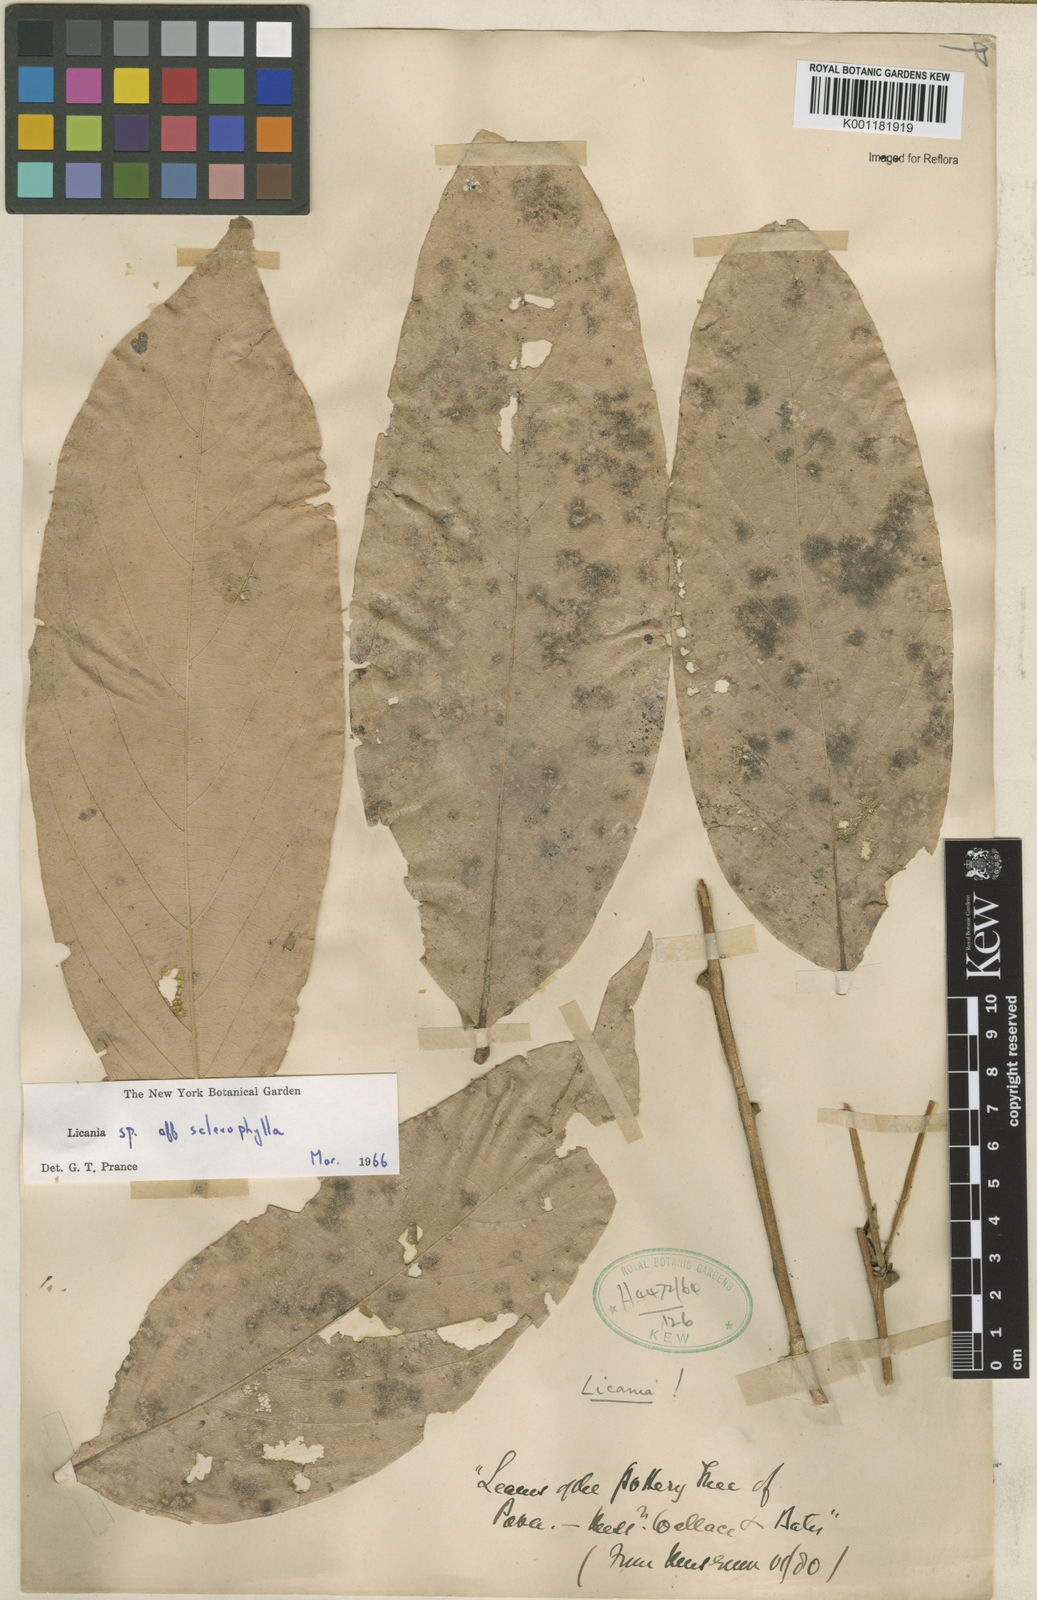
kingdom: Plantae
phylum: Tracheophyta
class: Magnoliopsida
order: Malpighiales
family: Chrysobalanaceae
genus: Leptobalanus
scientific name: Leptobalanus sclerophyllus
